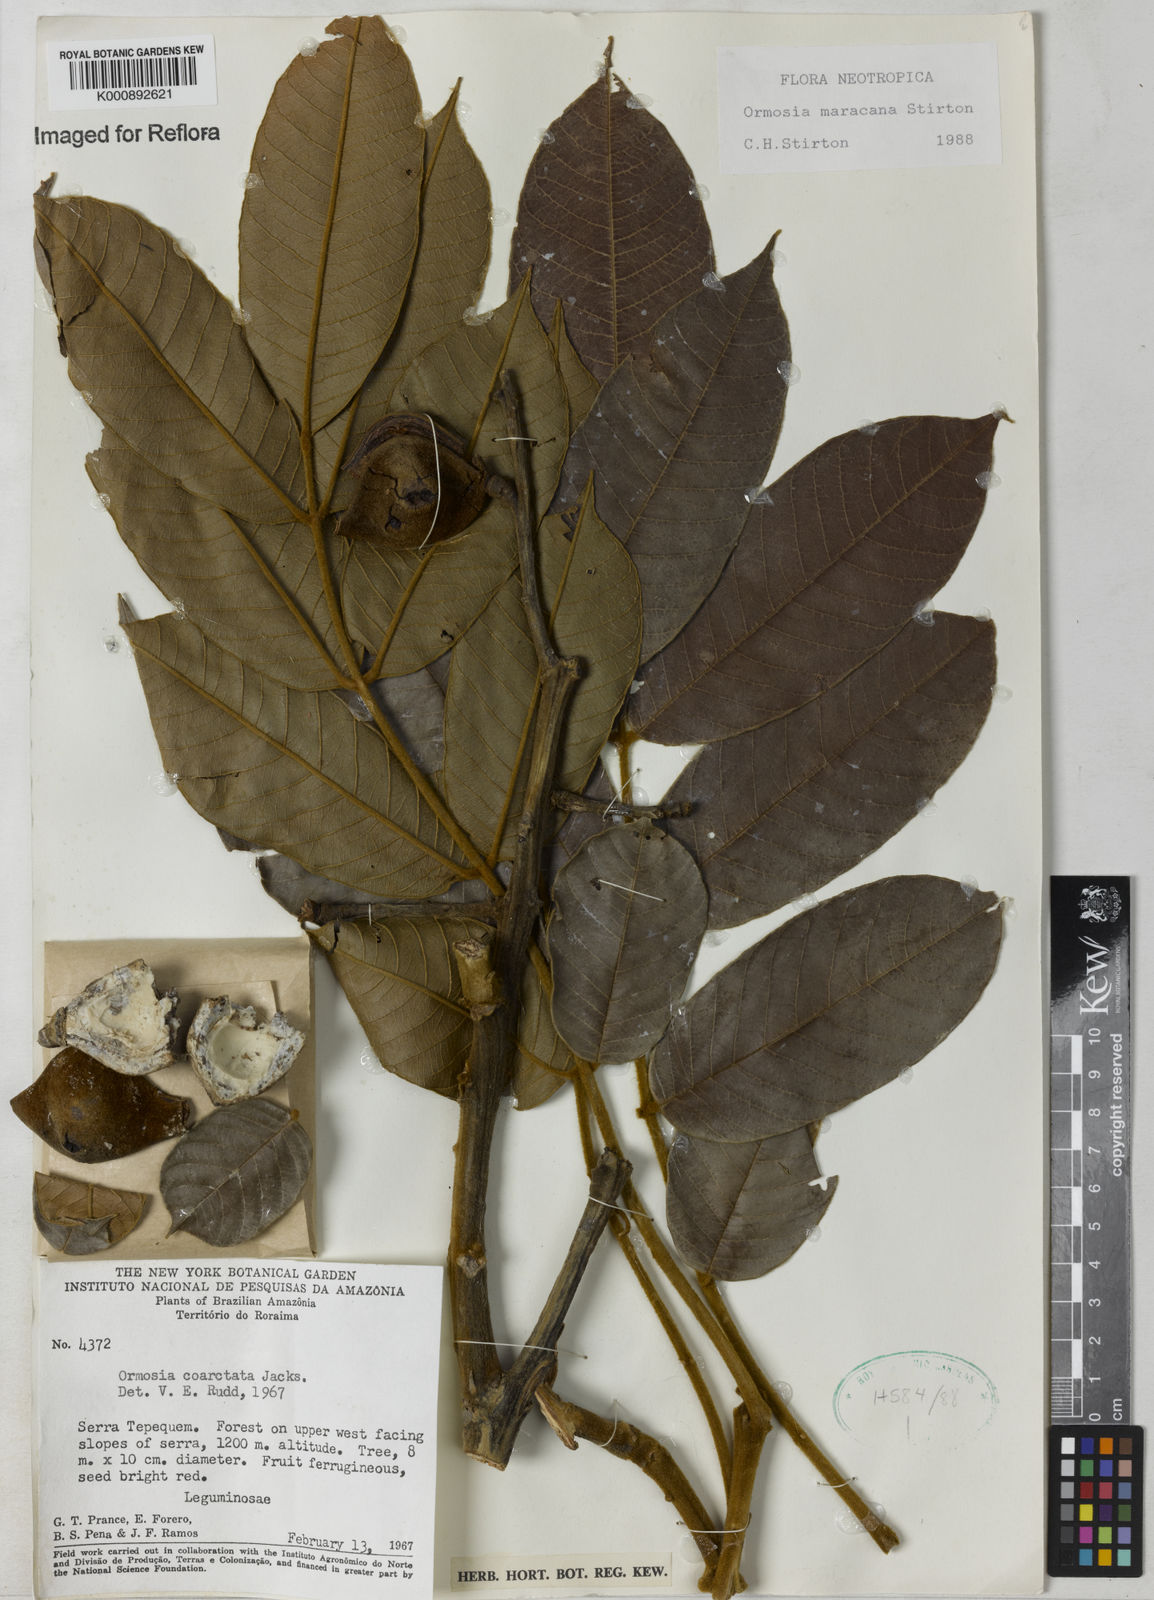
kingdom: Plantae
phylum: Tracheophyta
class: Magnoliopsida
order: Fabales
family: Fabaceae
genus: Ormosia
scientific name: Ormosia
